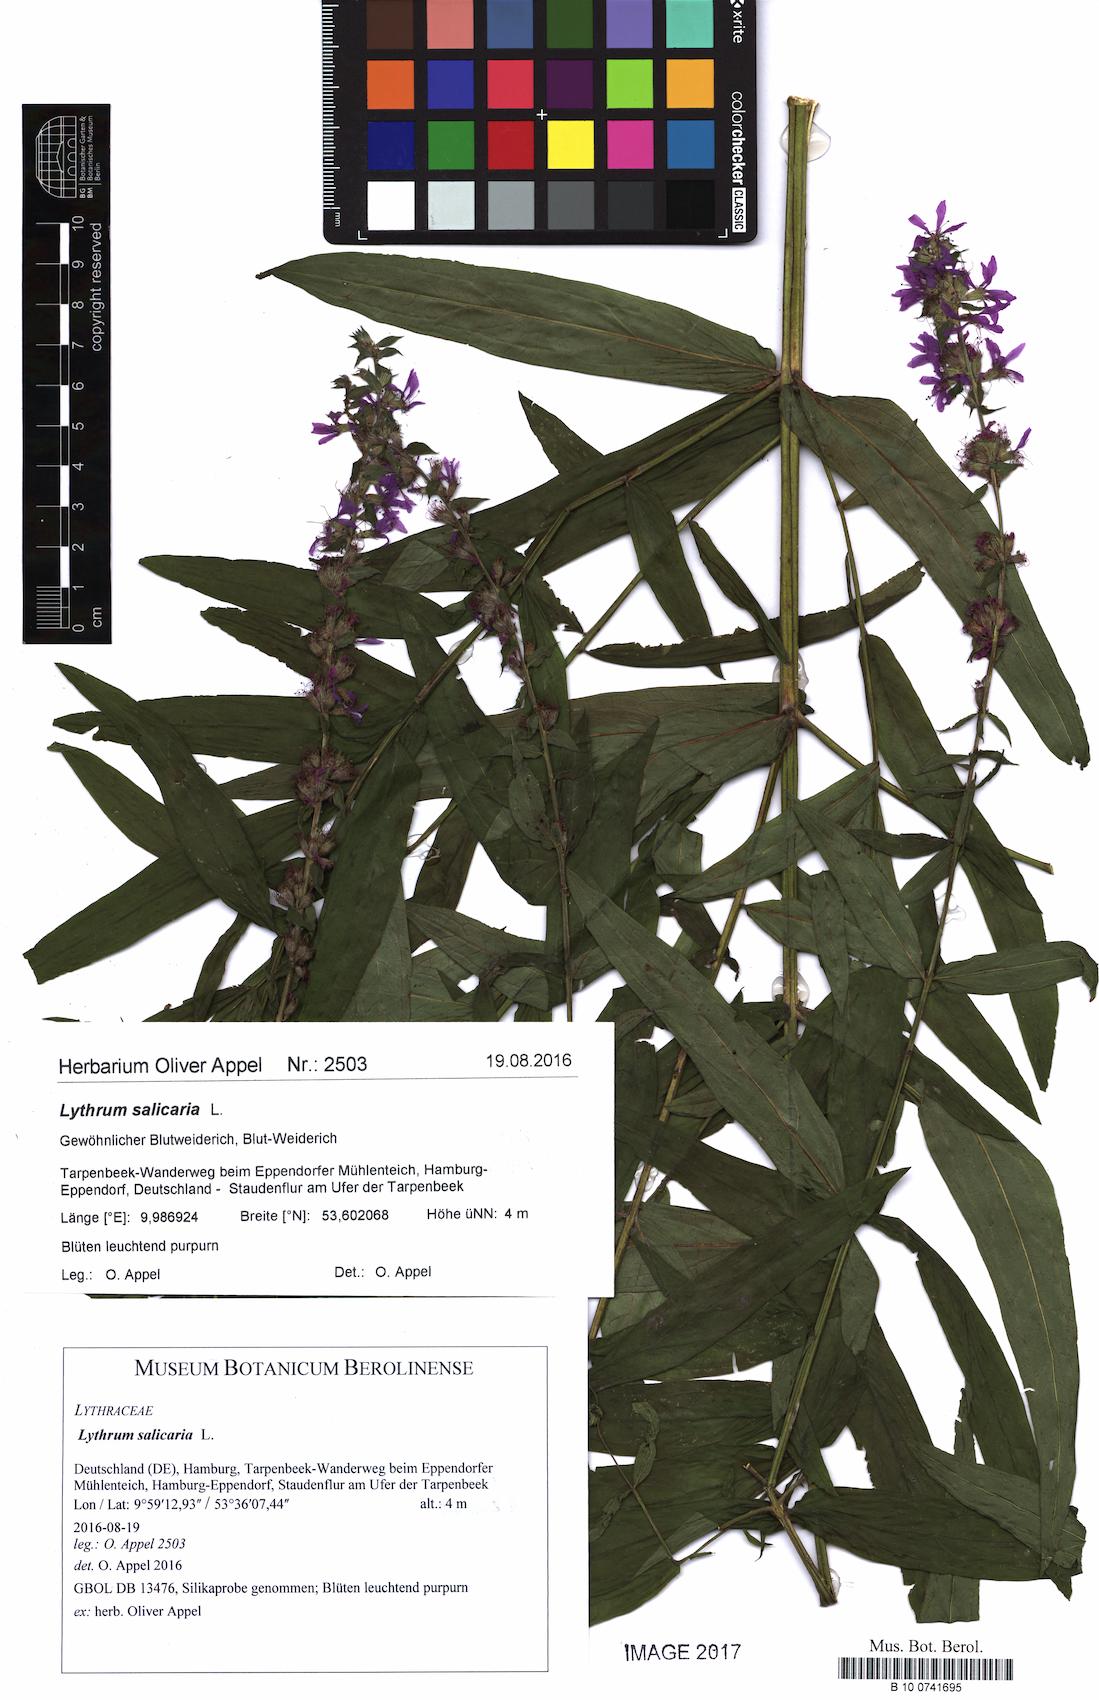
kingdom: Plantae
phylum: Tracheophyta
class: Magnoliopsida
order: Myrtales
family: Lythraceae
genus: Lythrum
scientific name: Lythrum salicaria
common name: Purple loosestrife
